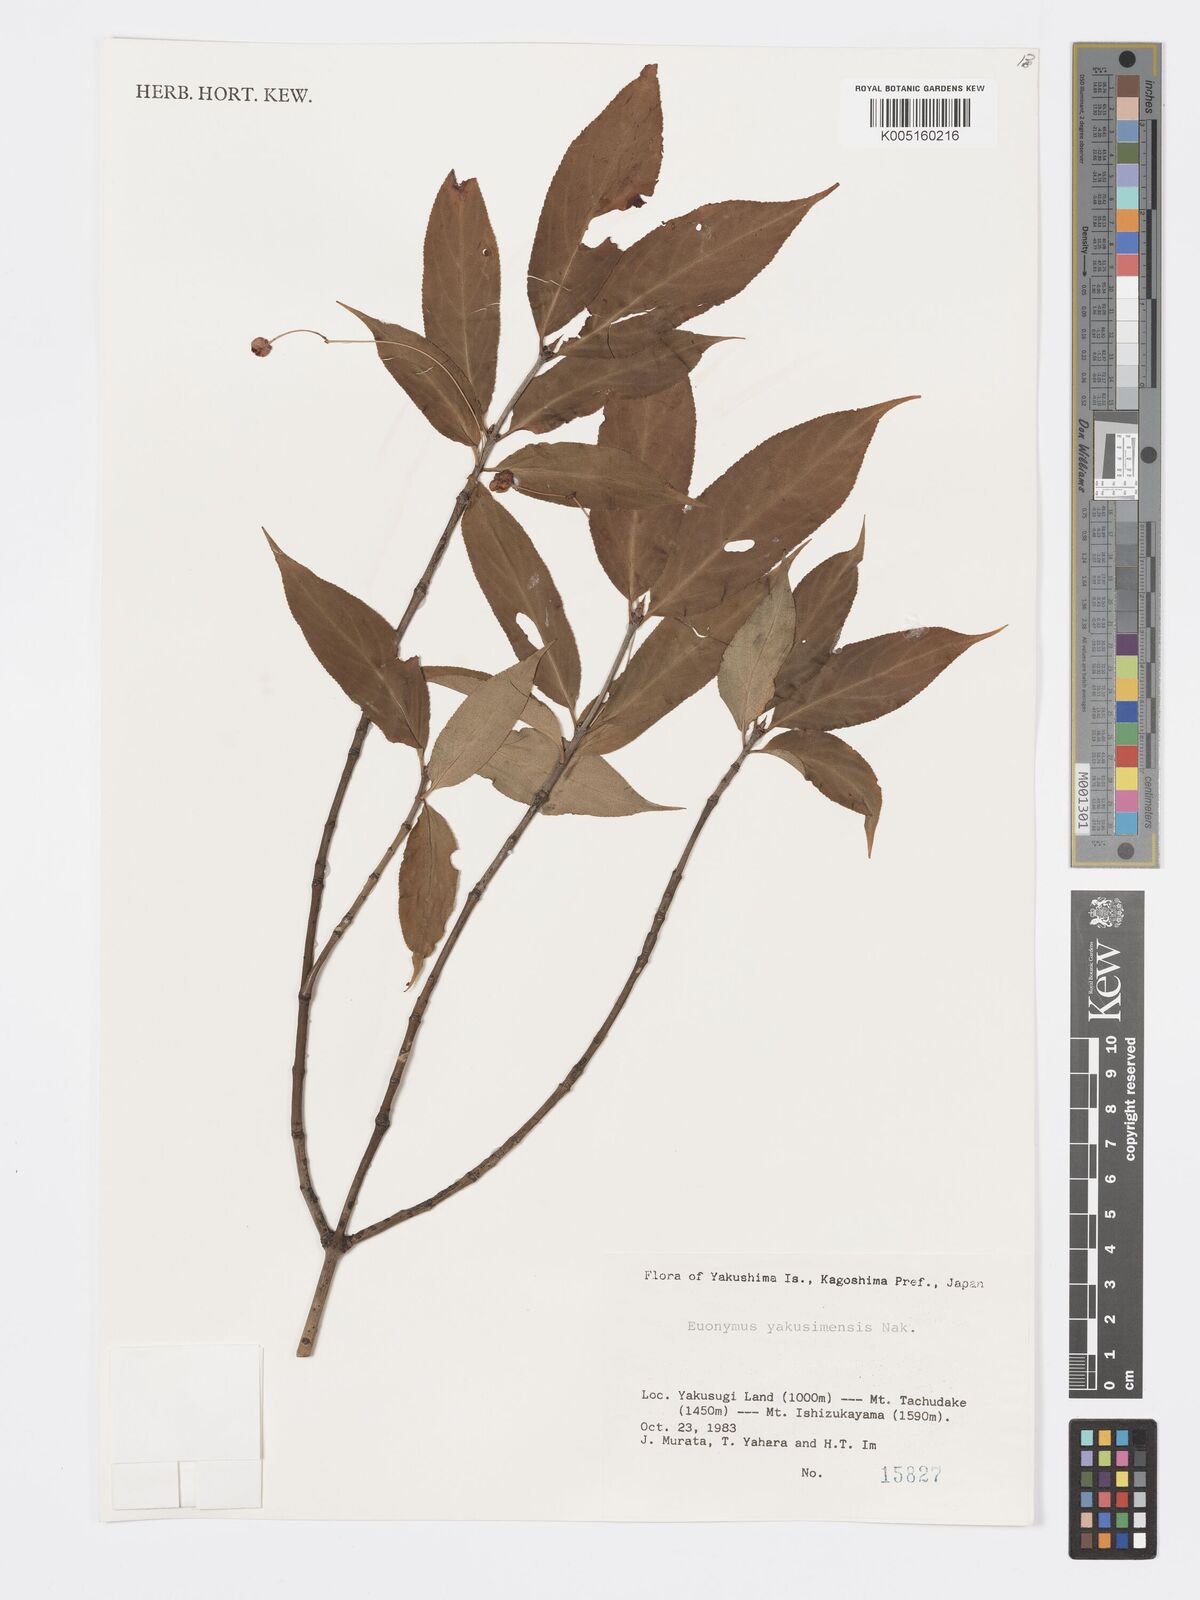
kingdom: Plantae
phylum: Tracheophyta
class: Magnoliopsida
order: Celastrales
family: Celastraceae
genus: Euonymus
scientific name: Euonymus yakushimensis
